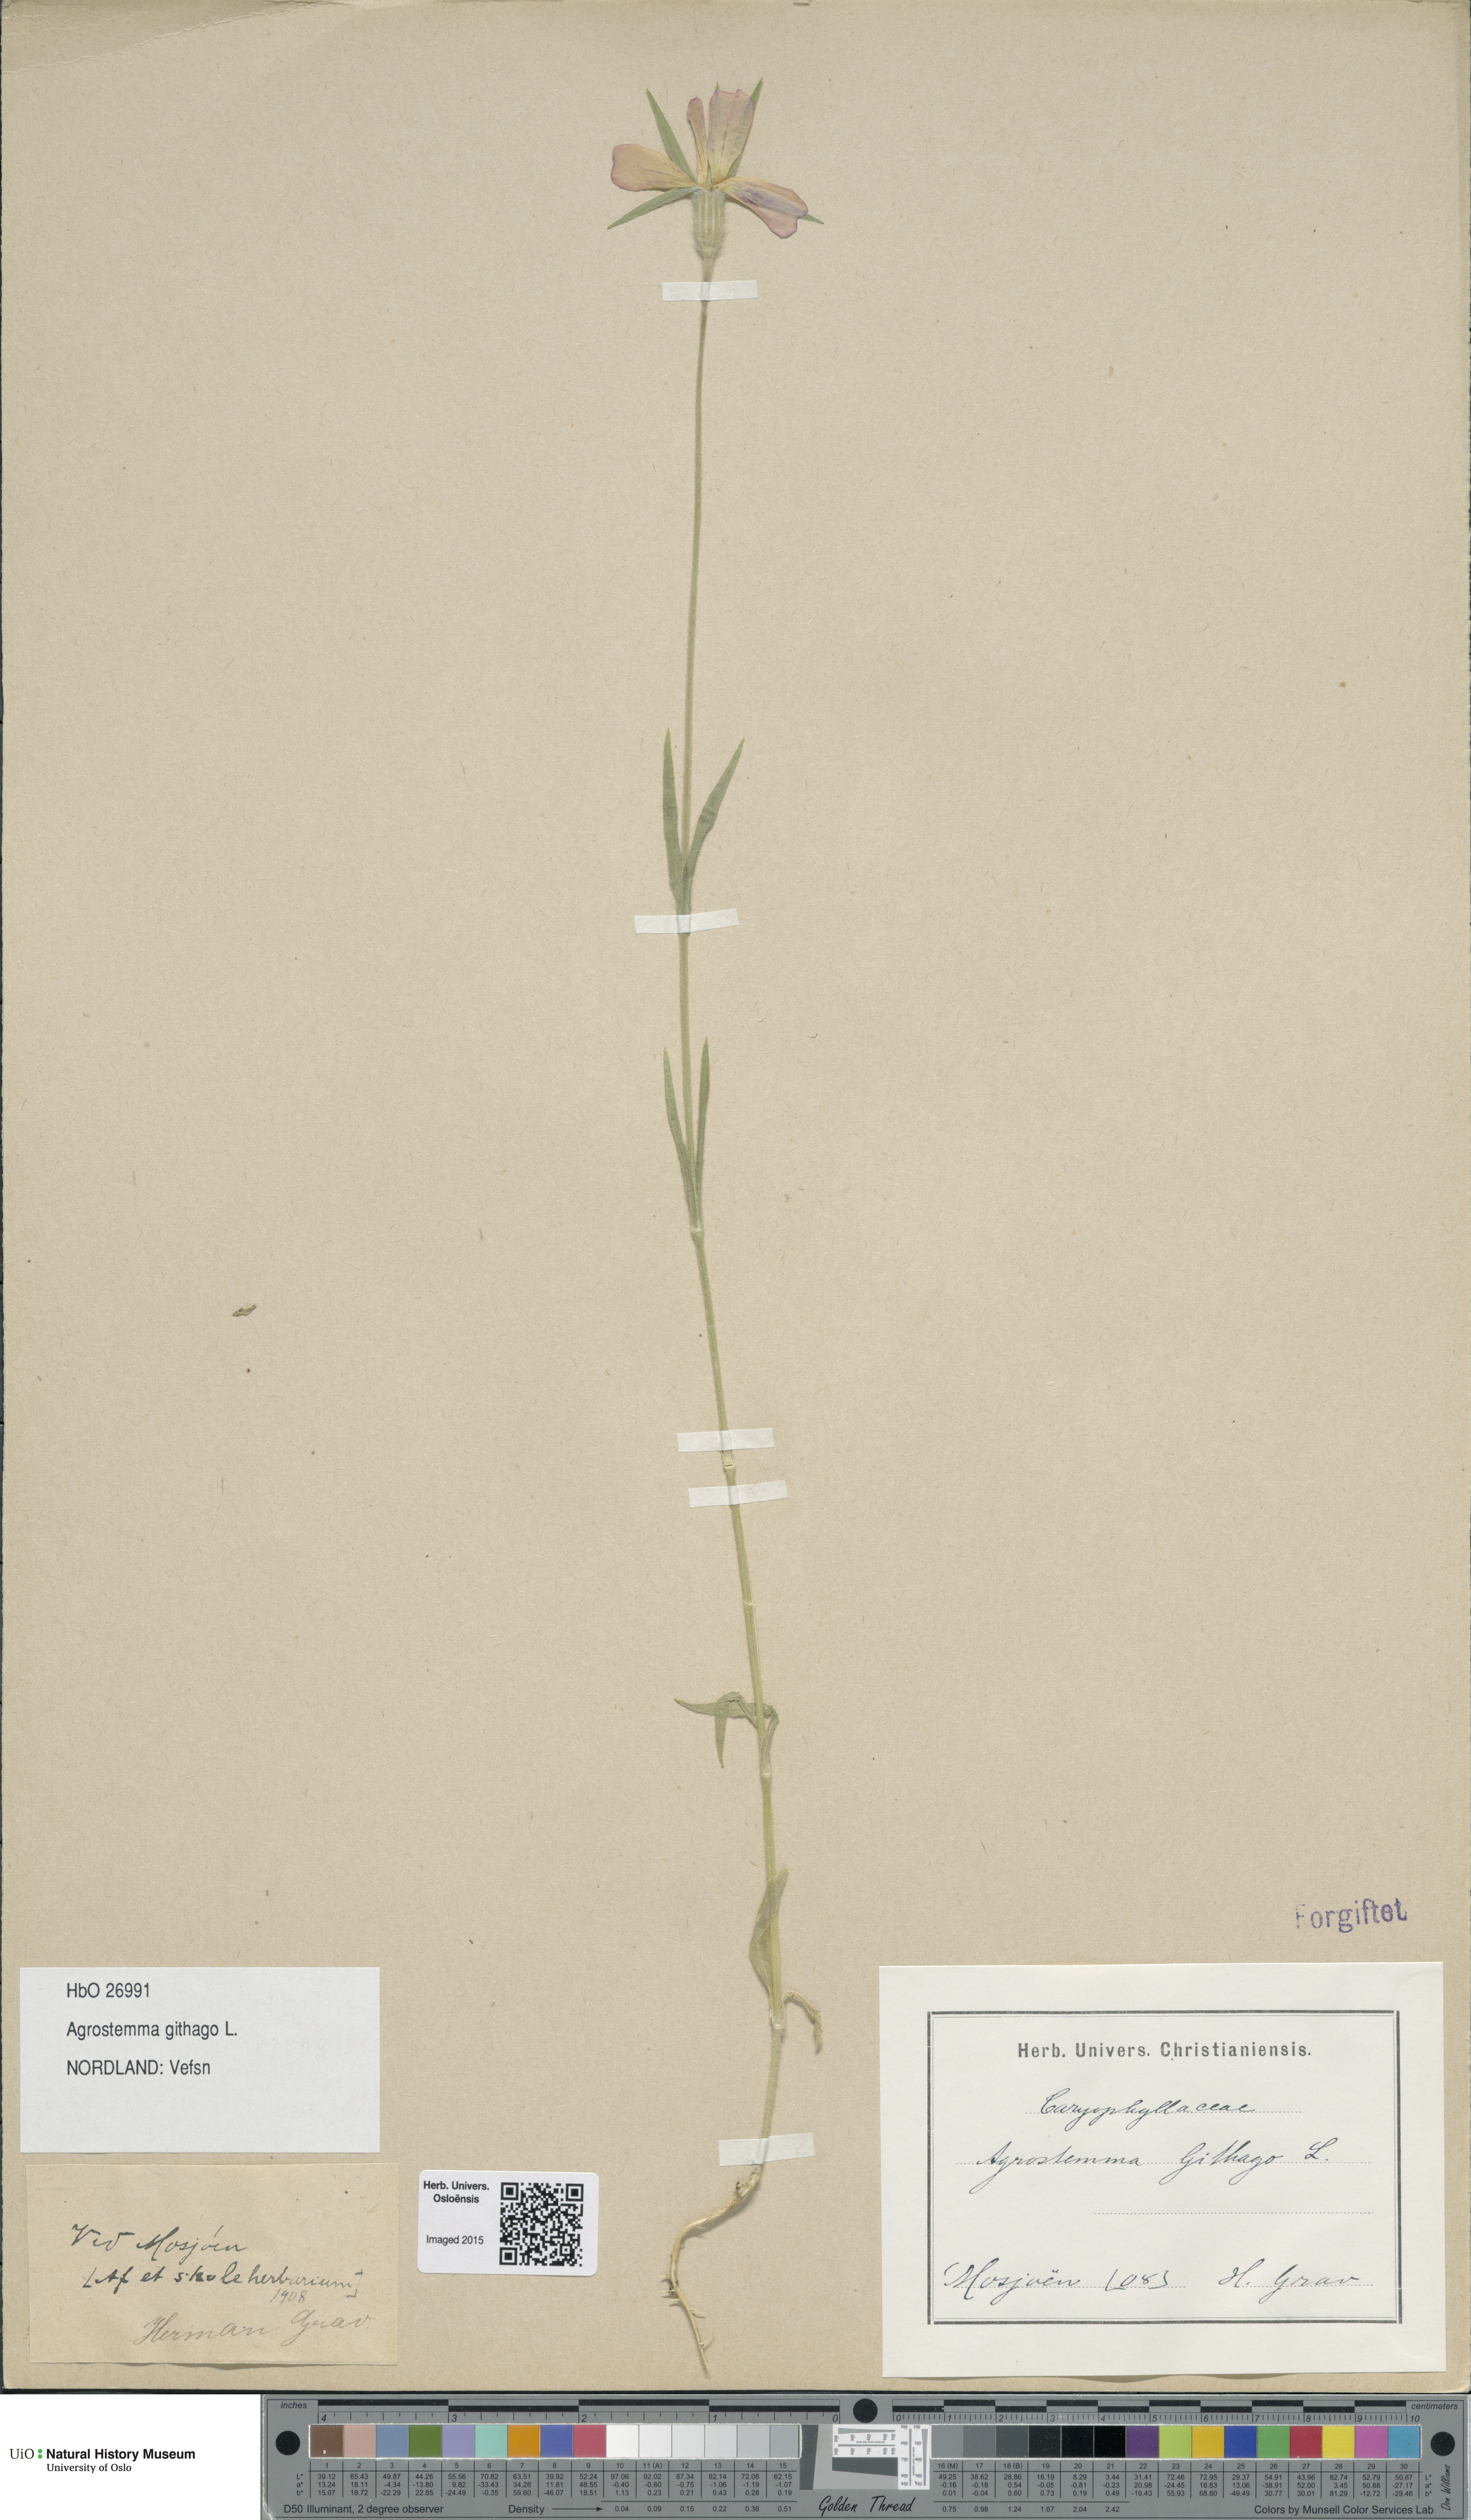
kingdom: Plantae
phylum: Tracheophyta
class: Magnoliopsida
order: Caryophyllales
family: Caryophyllaceae
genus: Agrostemma
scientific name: Agrostemma githago
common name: Common corncockle
